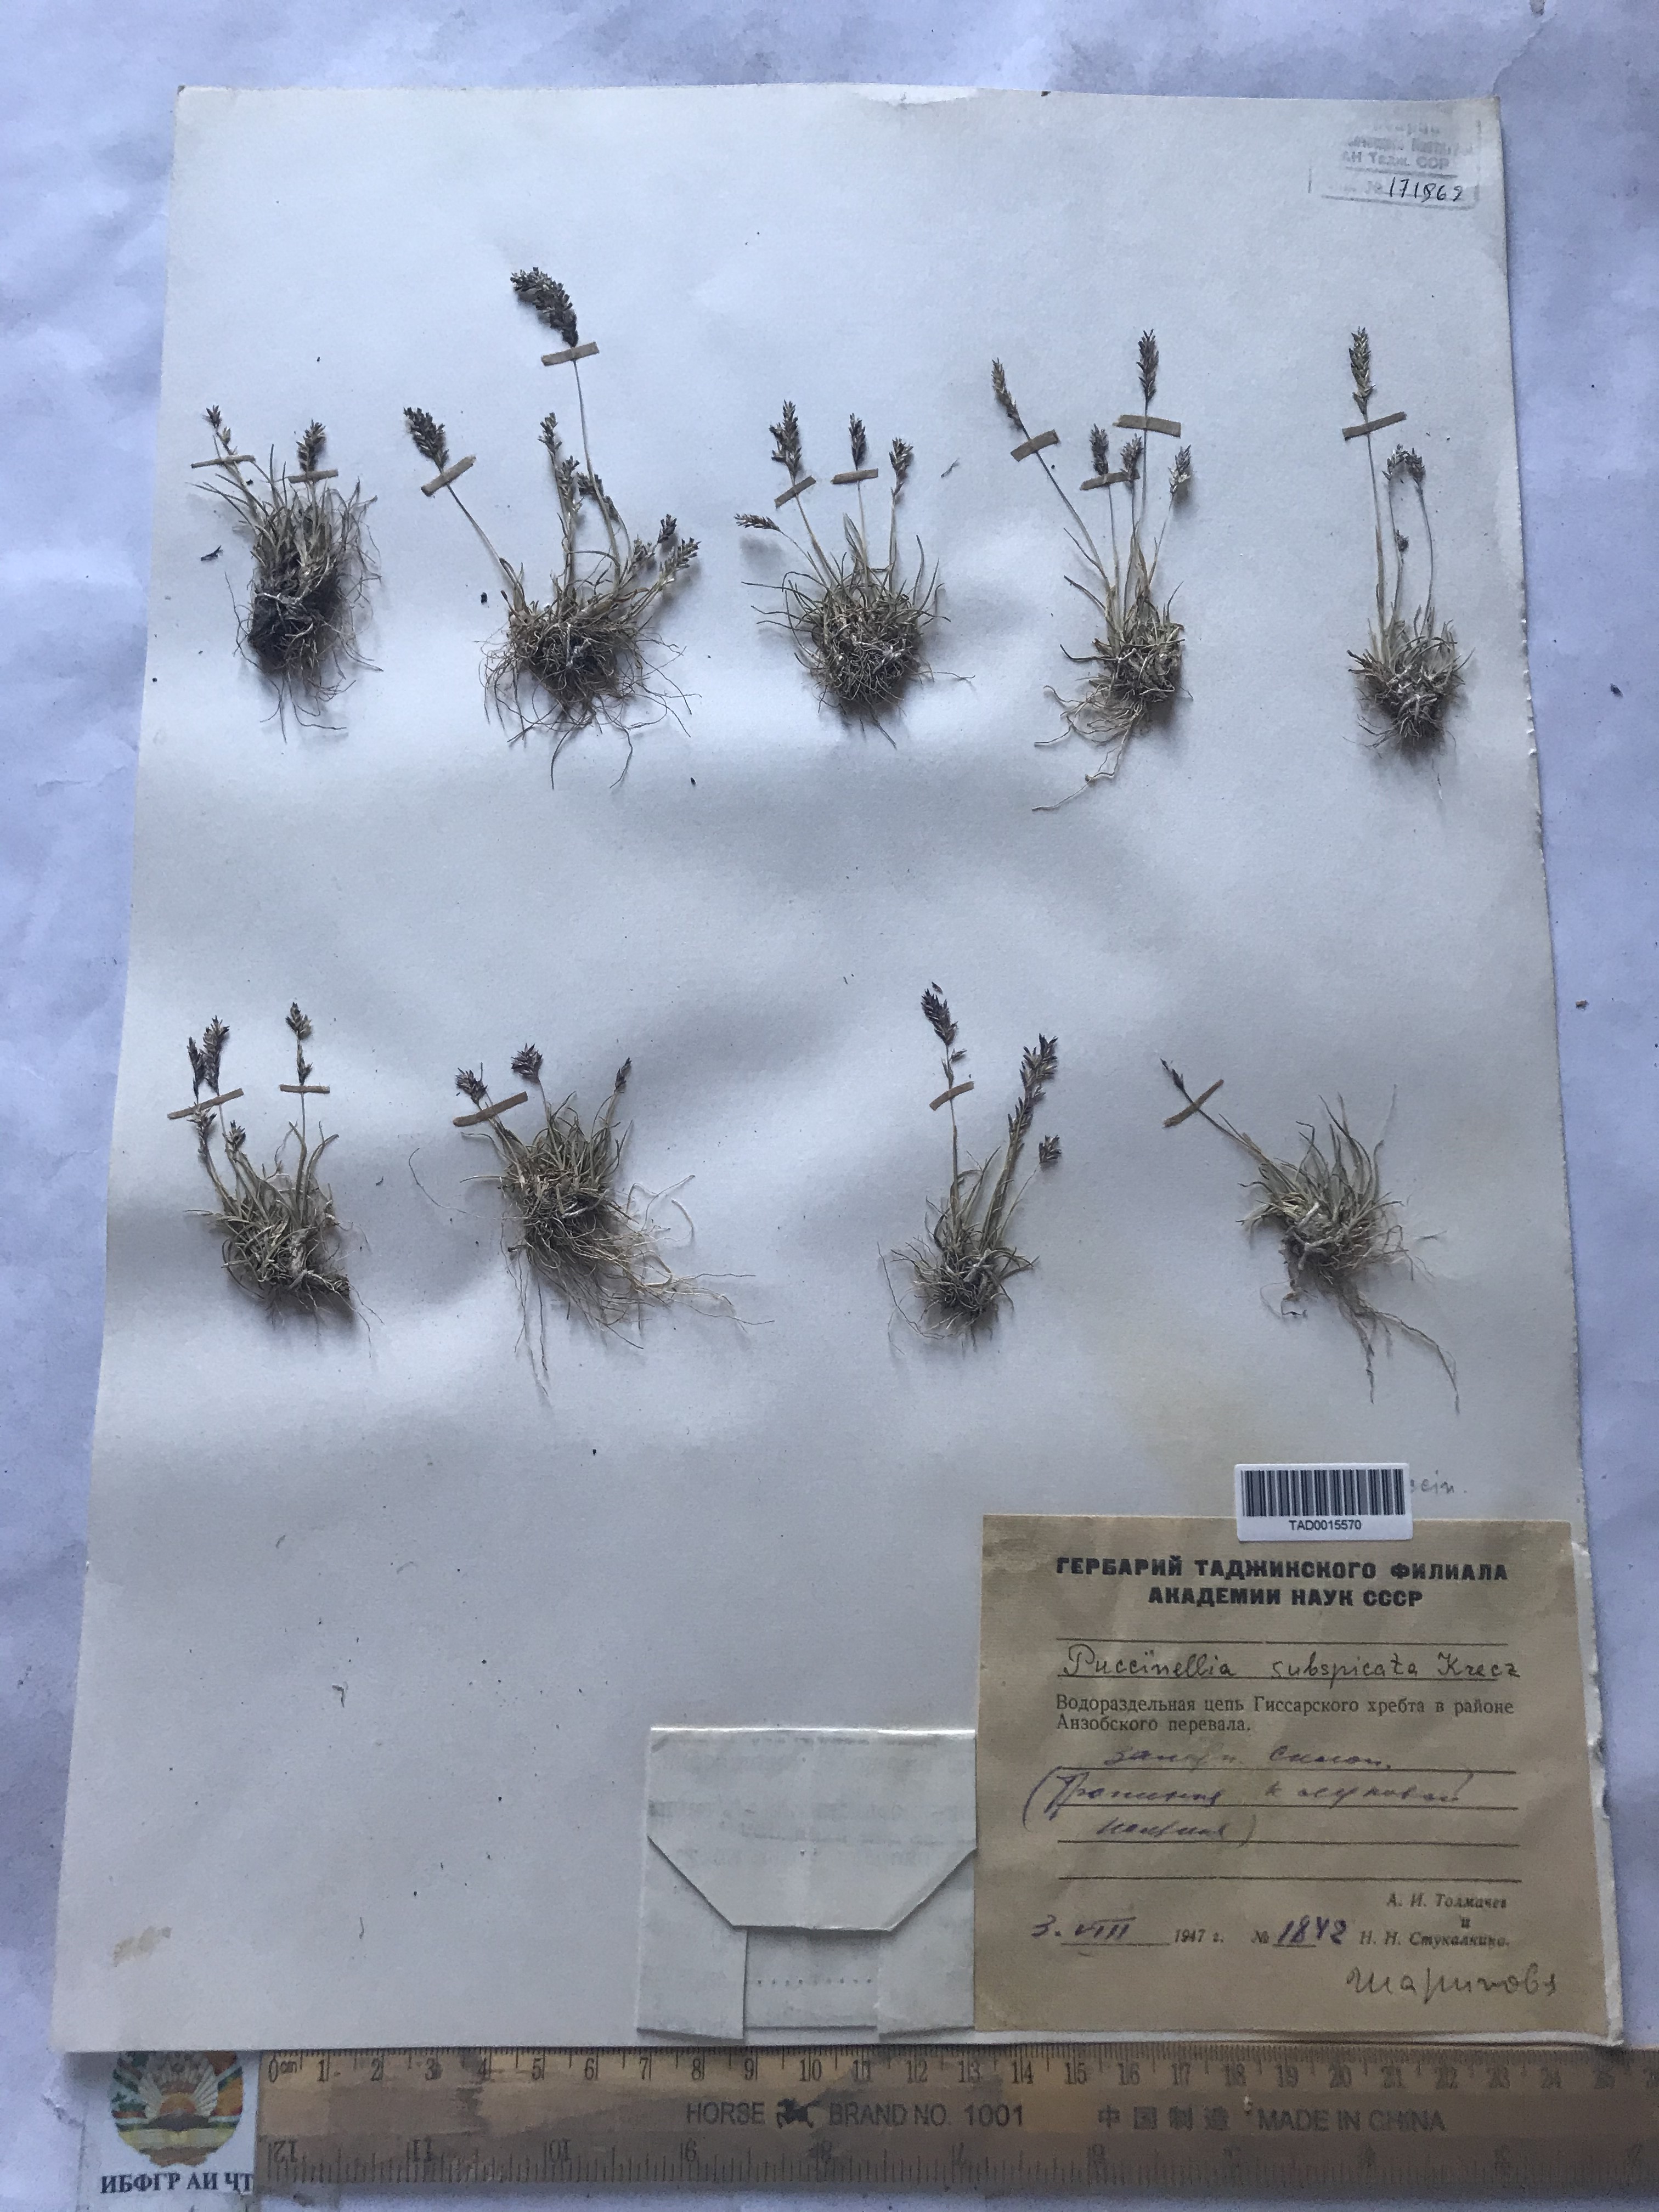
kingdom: Plantae
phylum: Tracheophyta
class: Liliopsida
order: Poales
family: Poaceae
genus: Puccinellia
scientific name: Puccinellia subspicata
